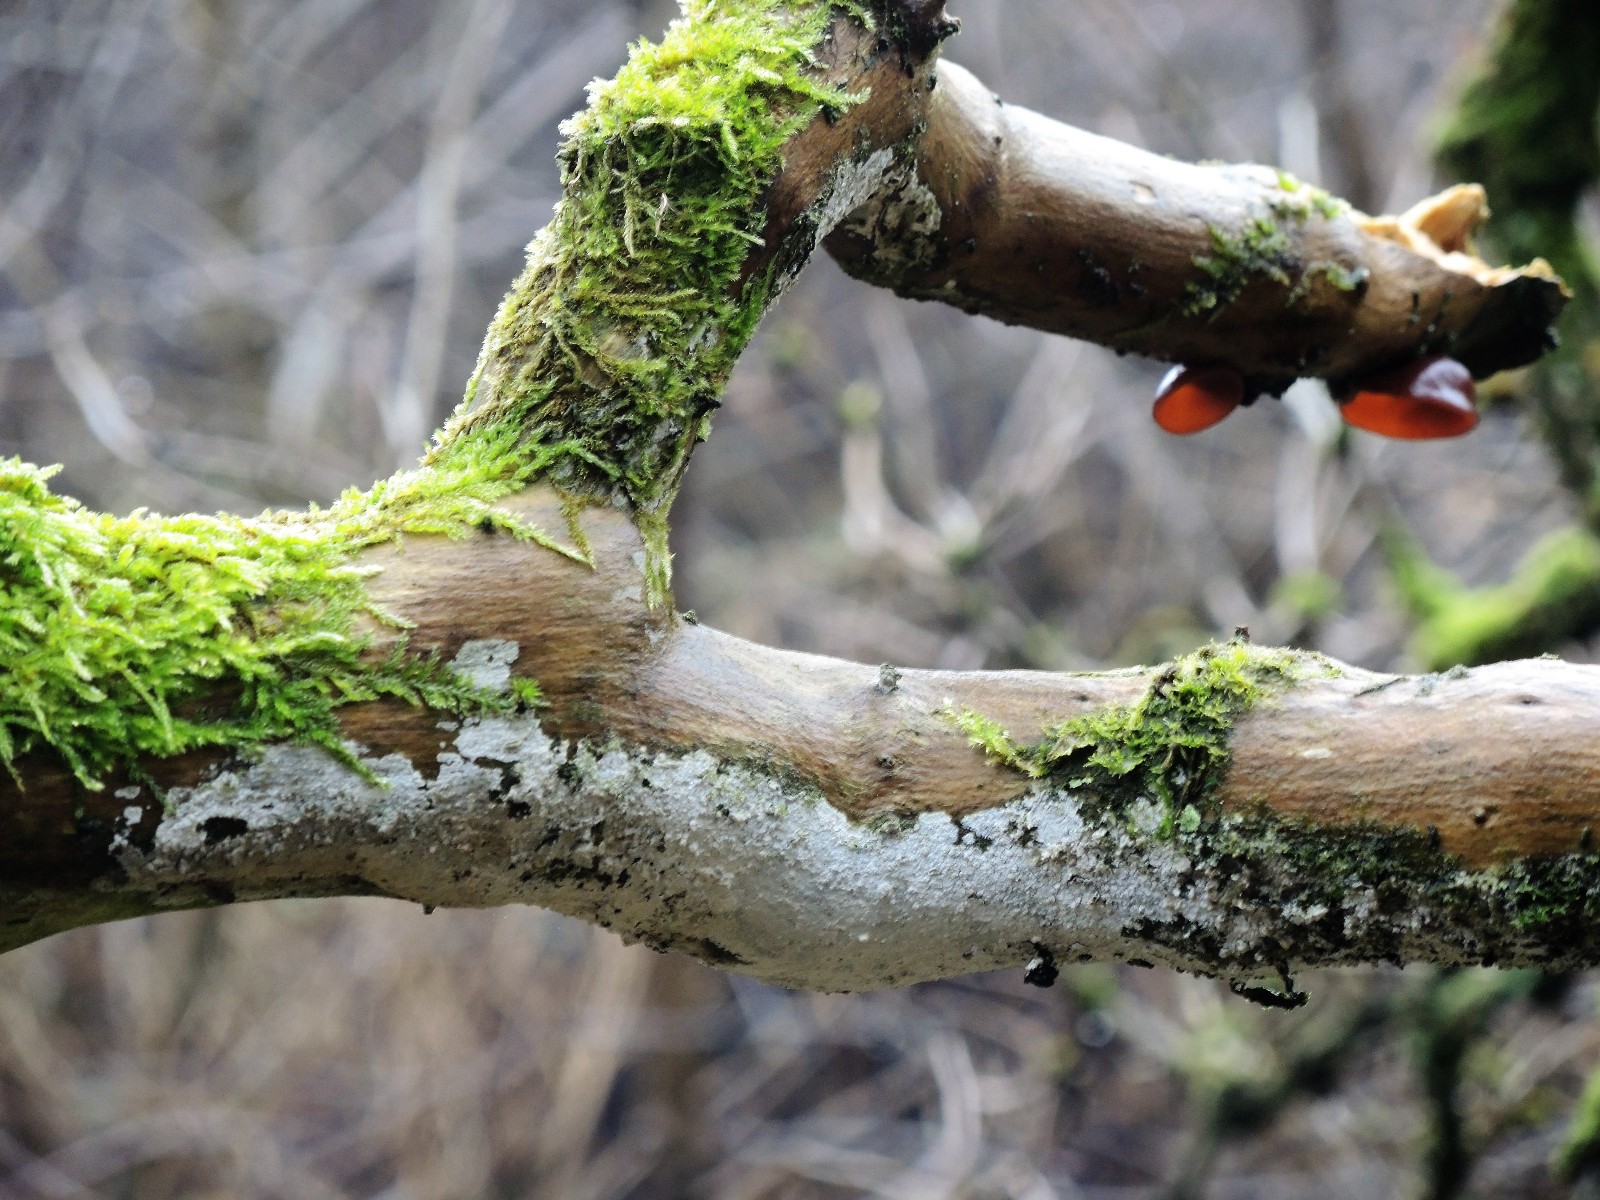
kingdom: Fungi
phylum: Basidiomycota
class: Agaricomycetes
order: Corticiales
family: Corticiaceae
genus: Lyomyces
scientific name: Lyomyces sambuci
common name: almindelig hyldehinde
